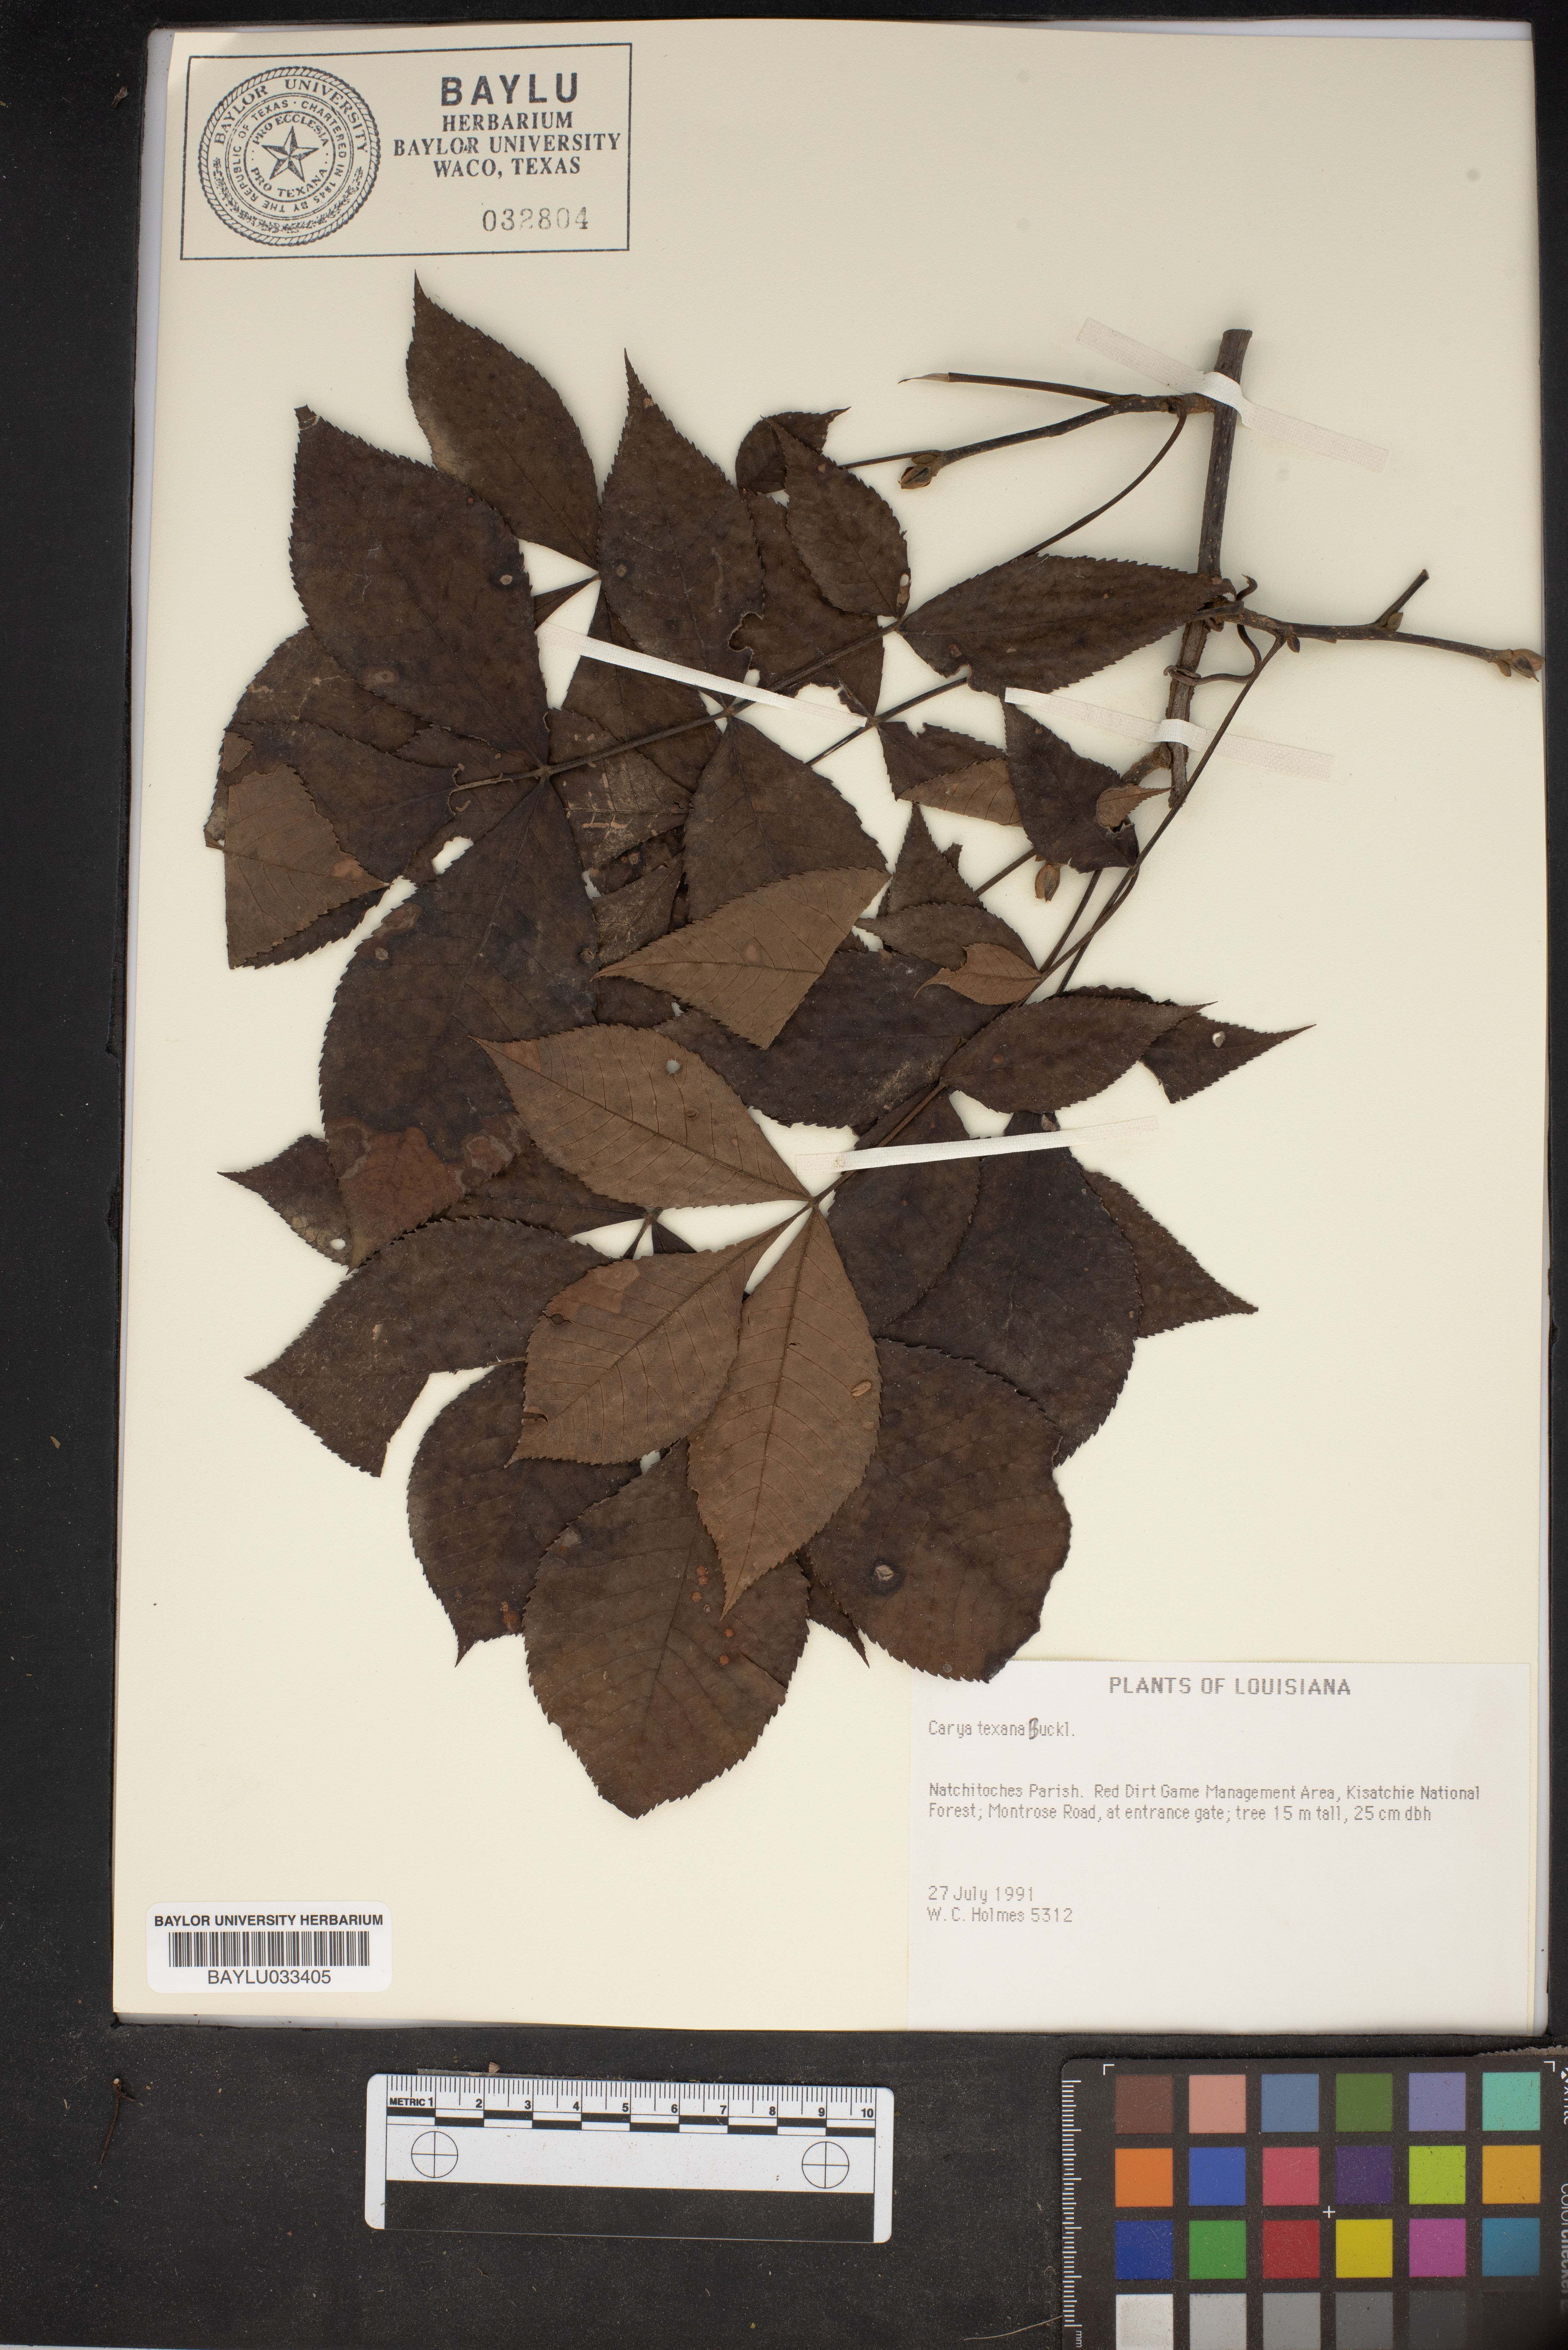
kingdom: Plantae
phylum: Tracheophyta
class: Magnoliopsida
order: Fagales
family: Juglandaceae
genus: Carya
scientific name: Carya texana
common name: Black hickory
